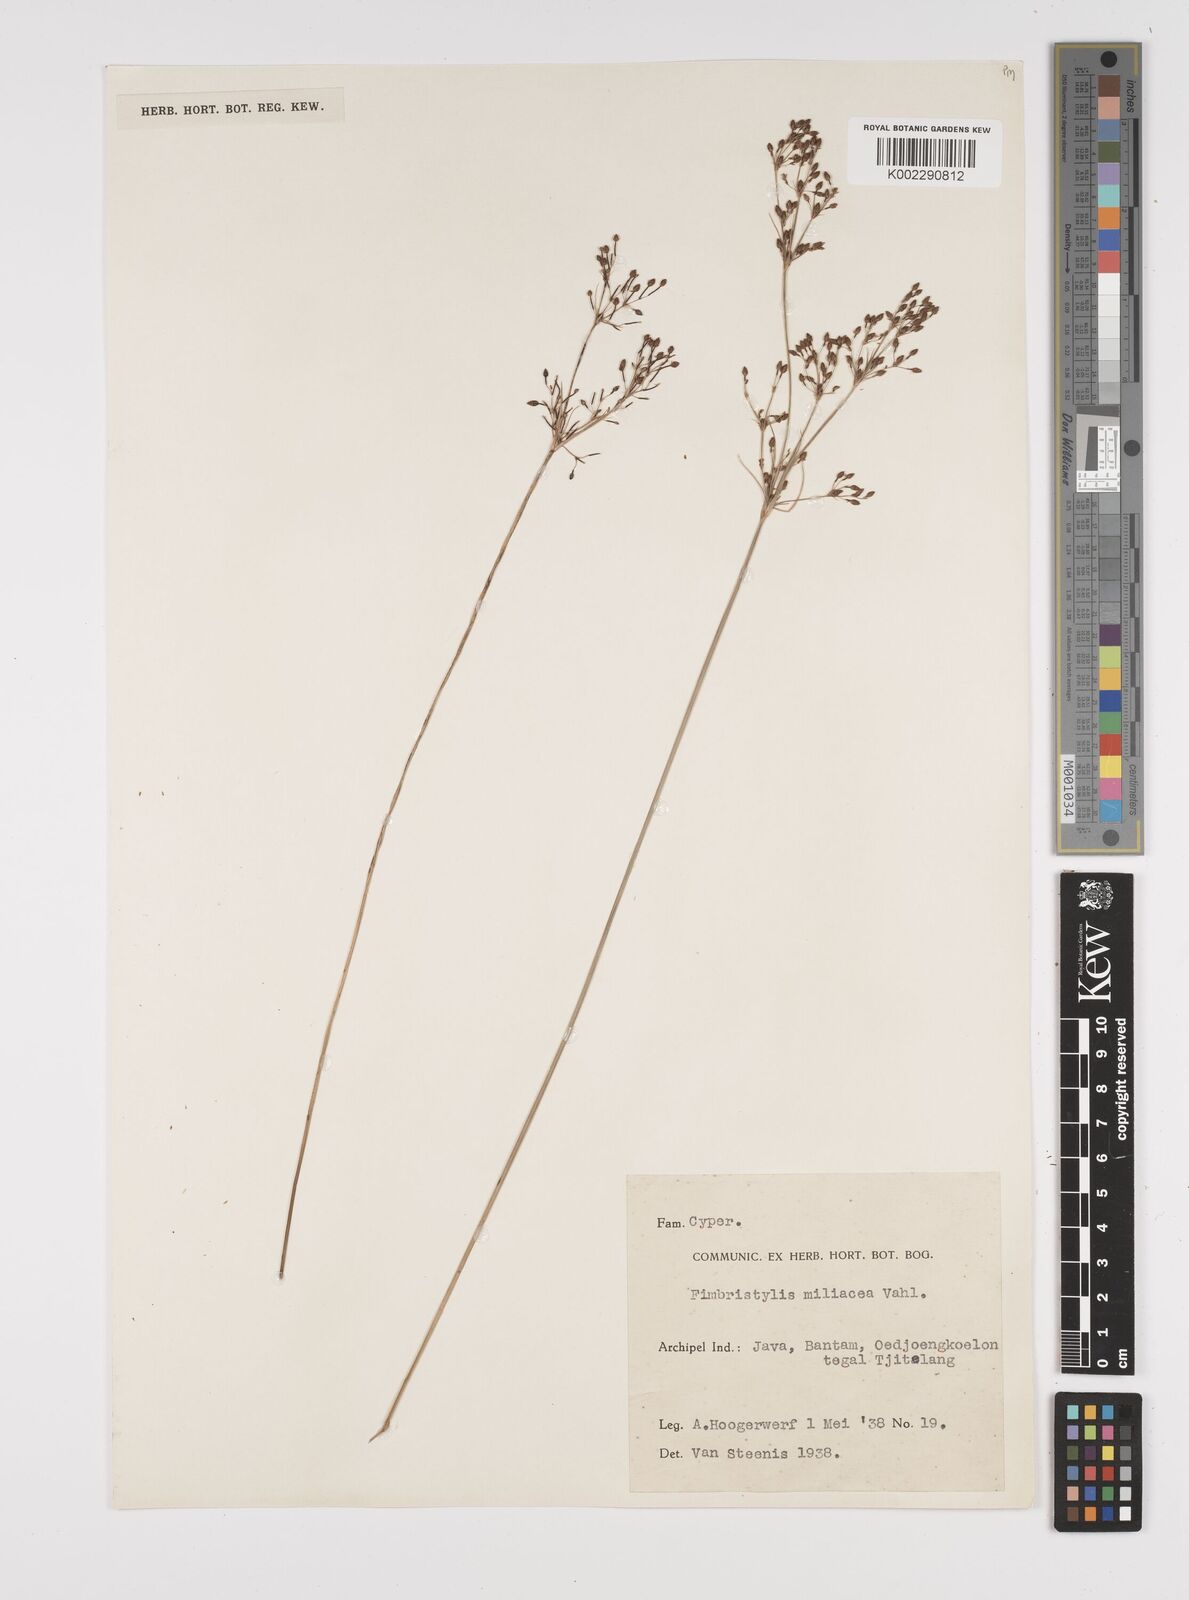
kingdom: Plantae
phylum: Tracheophyta
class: Liliopsida
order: Poales
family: Cyperaceae
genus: Fimbristylis
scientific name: Fimbristylis littoralis
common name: Fimbry
